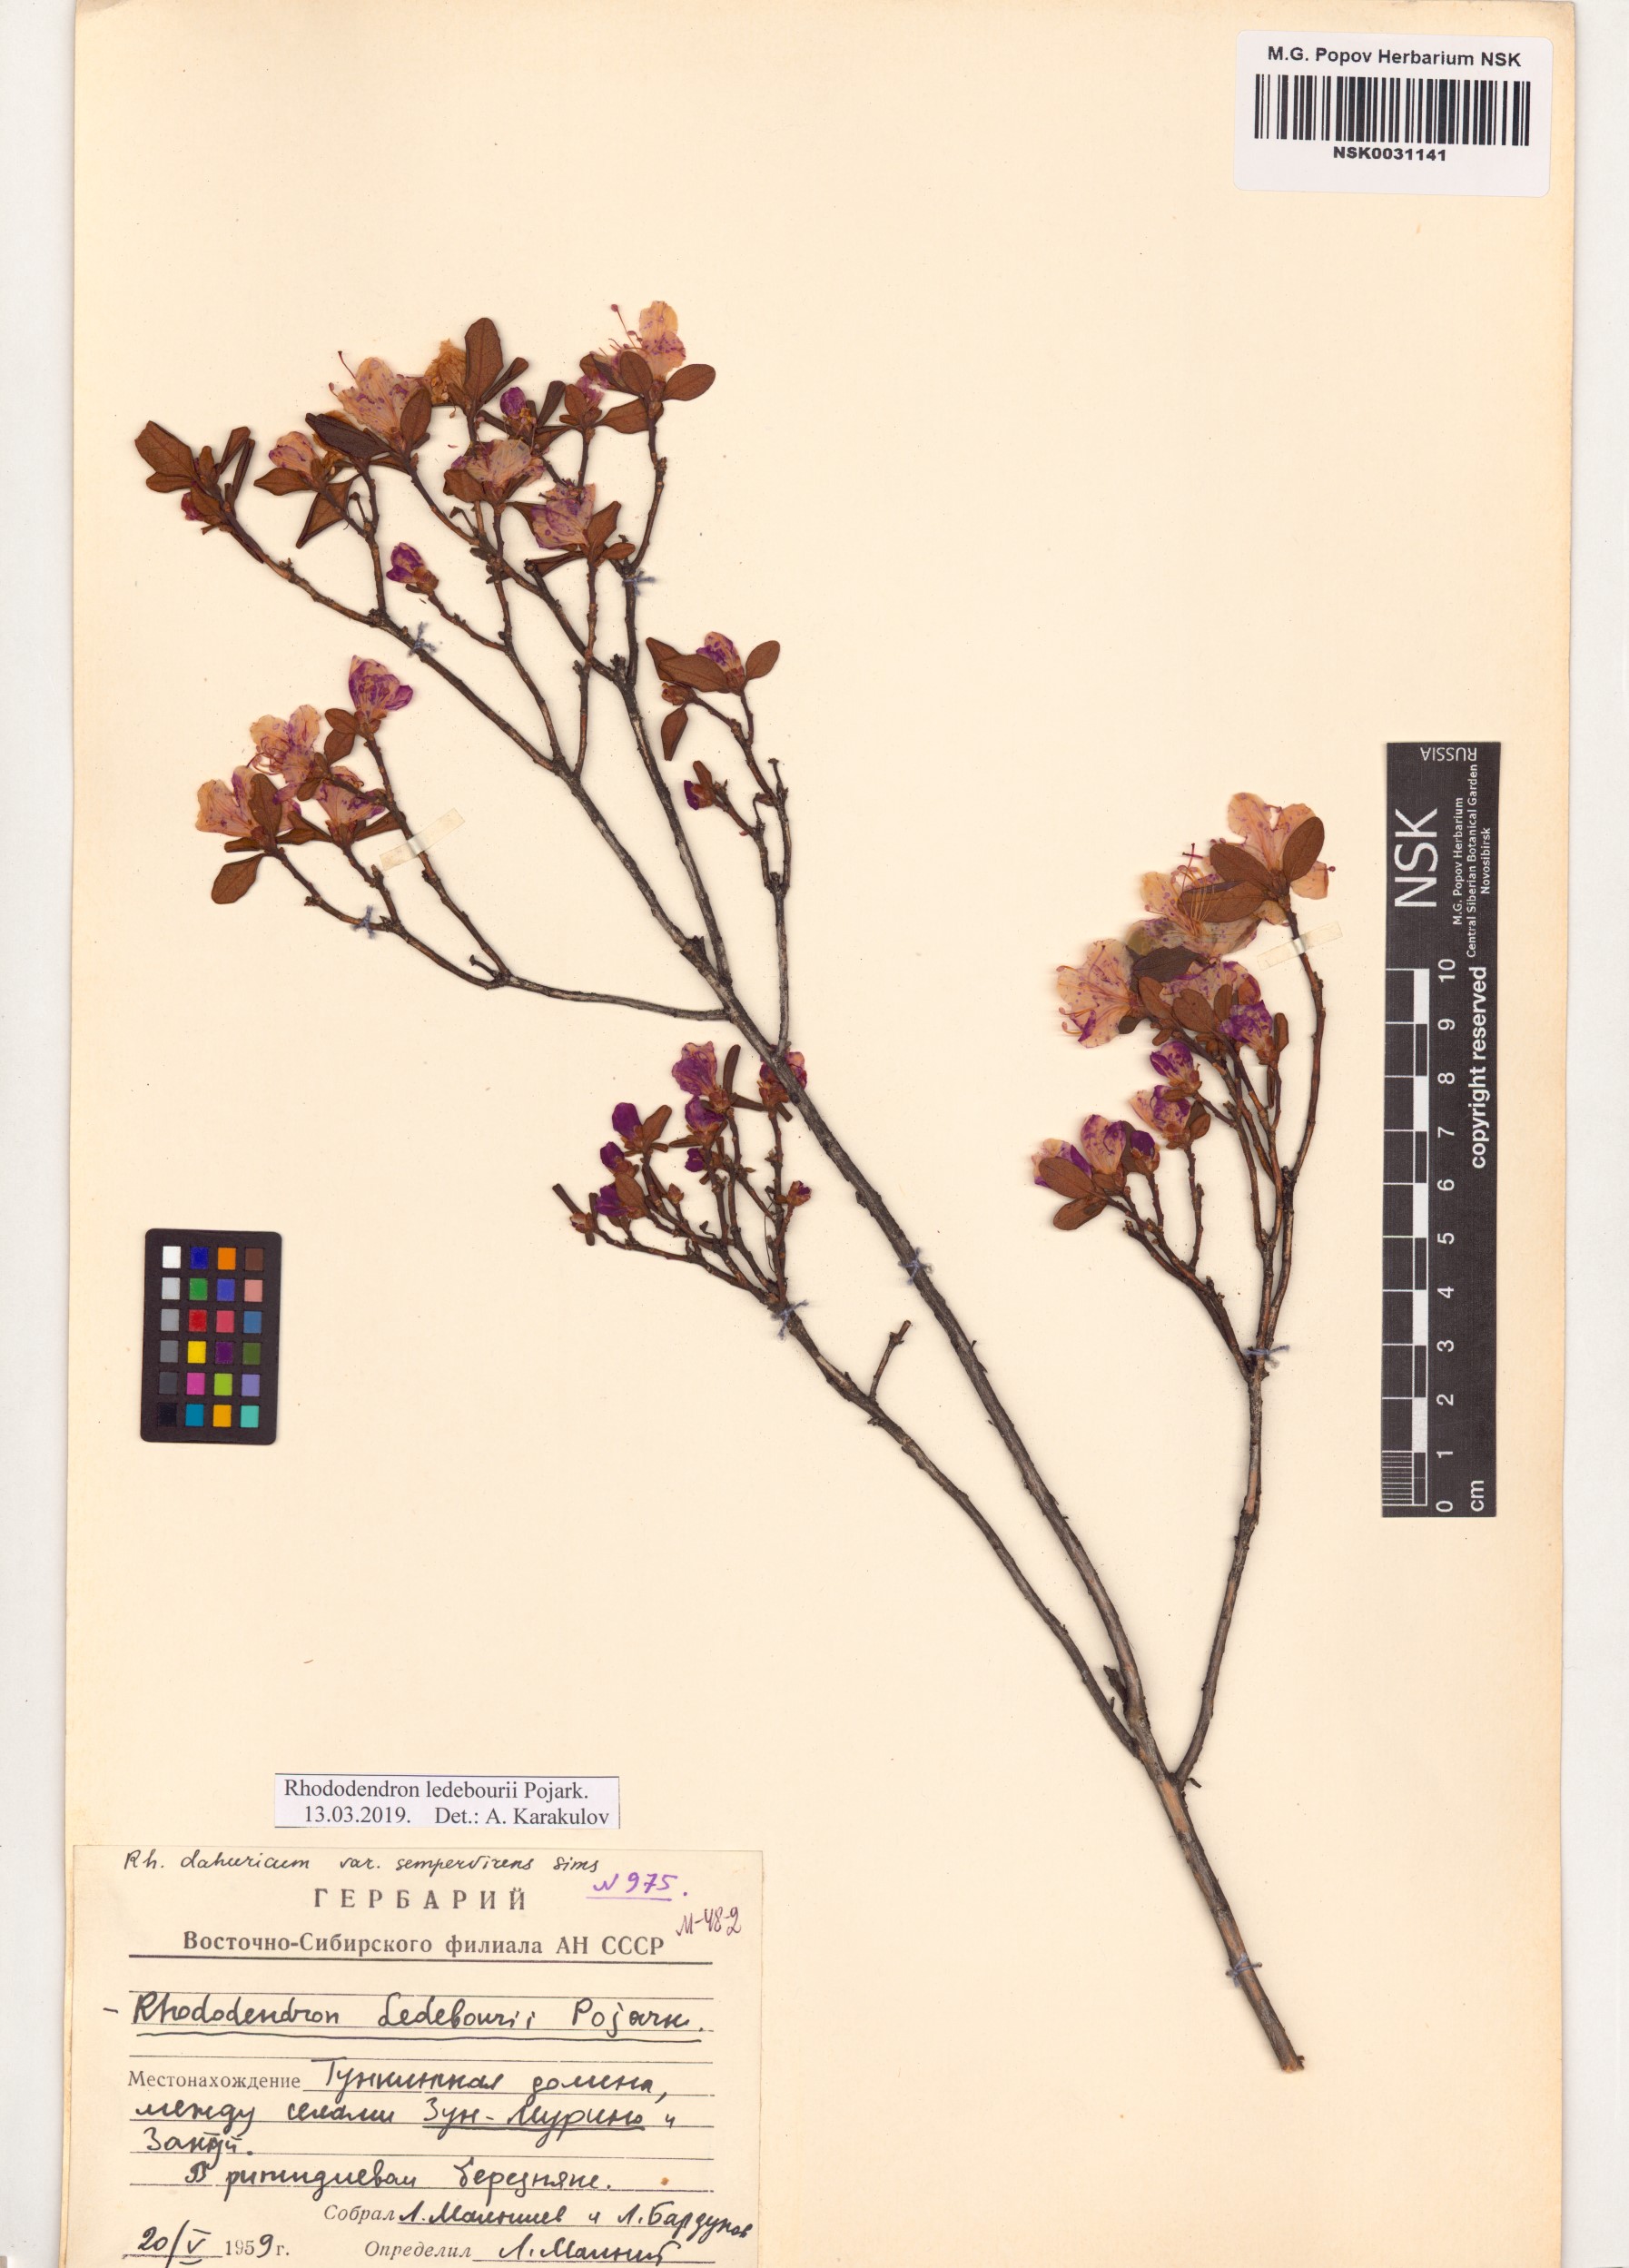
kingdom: Plantae
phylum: Tracheophyta
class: Magnoliopsida
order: Ericales
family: Ericaceae
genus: Rhododendron
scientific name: Rhododendron dauricum
